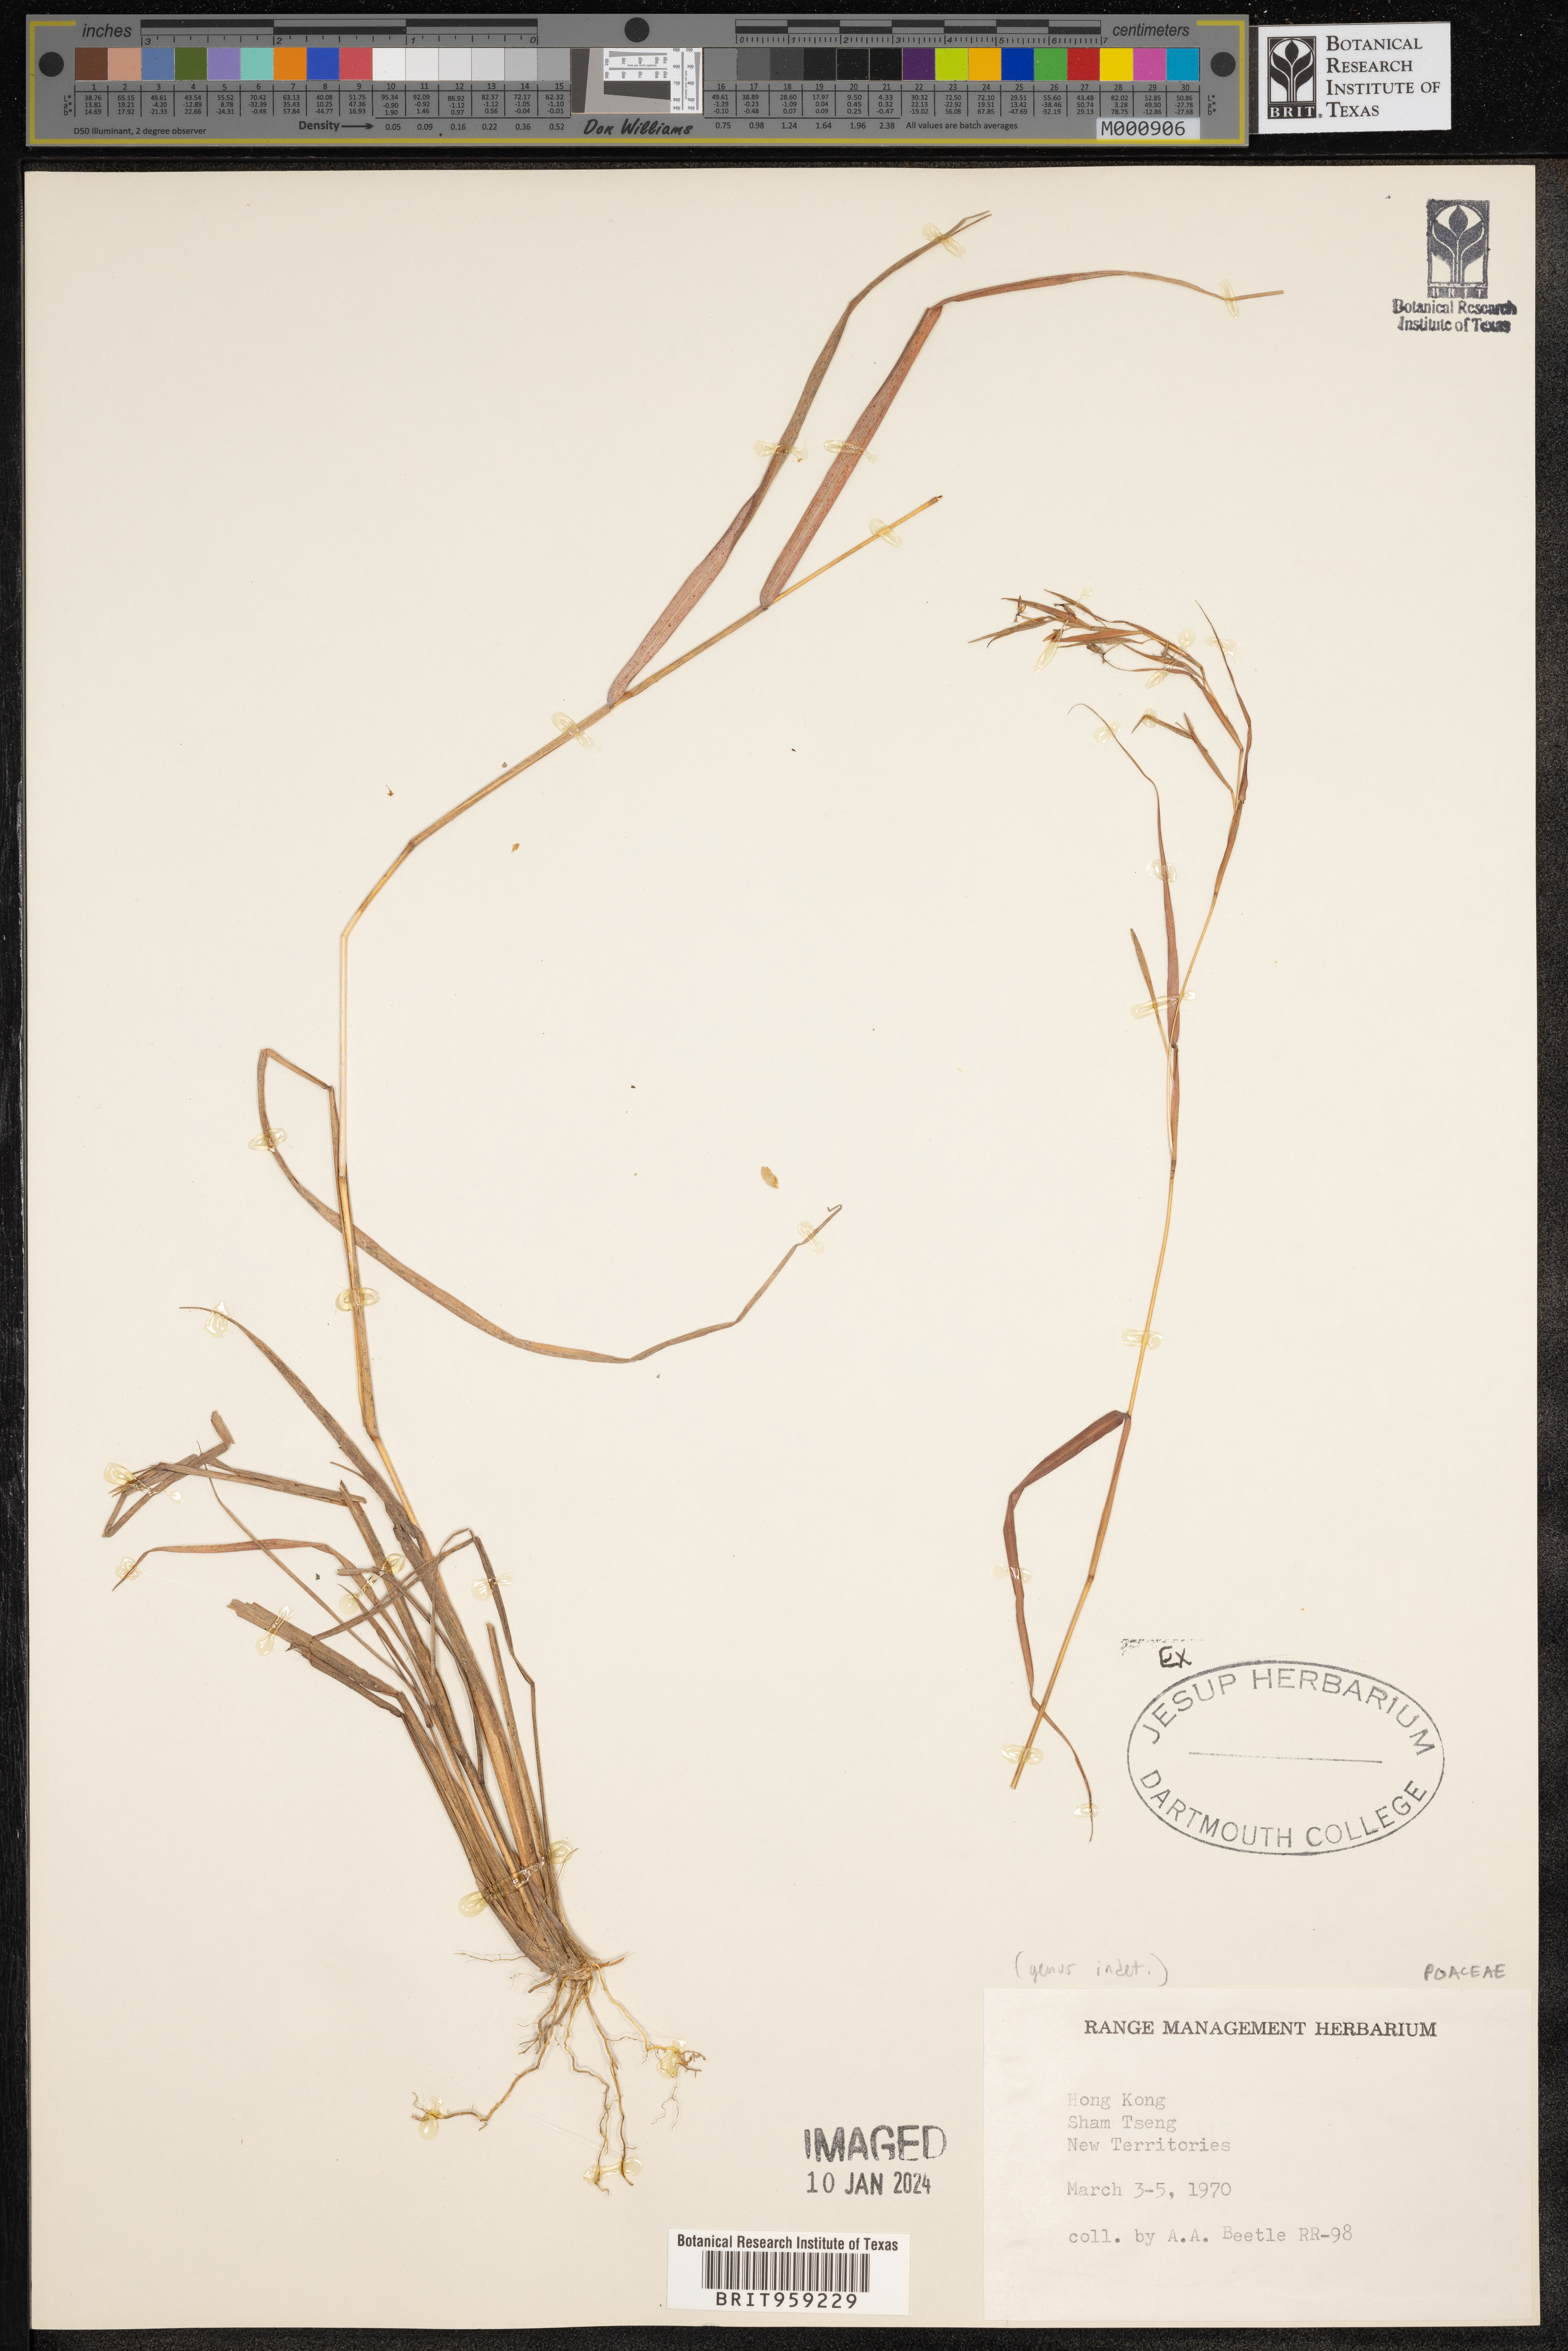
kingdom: Plantae
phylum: Tracheophyta
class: Liliopsida
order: Poales
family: Poaceae
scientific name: Poaceae
